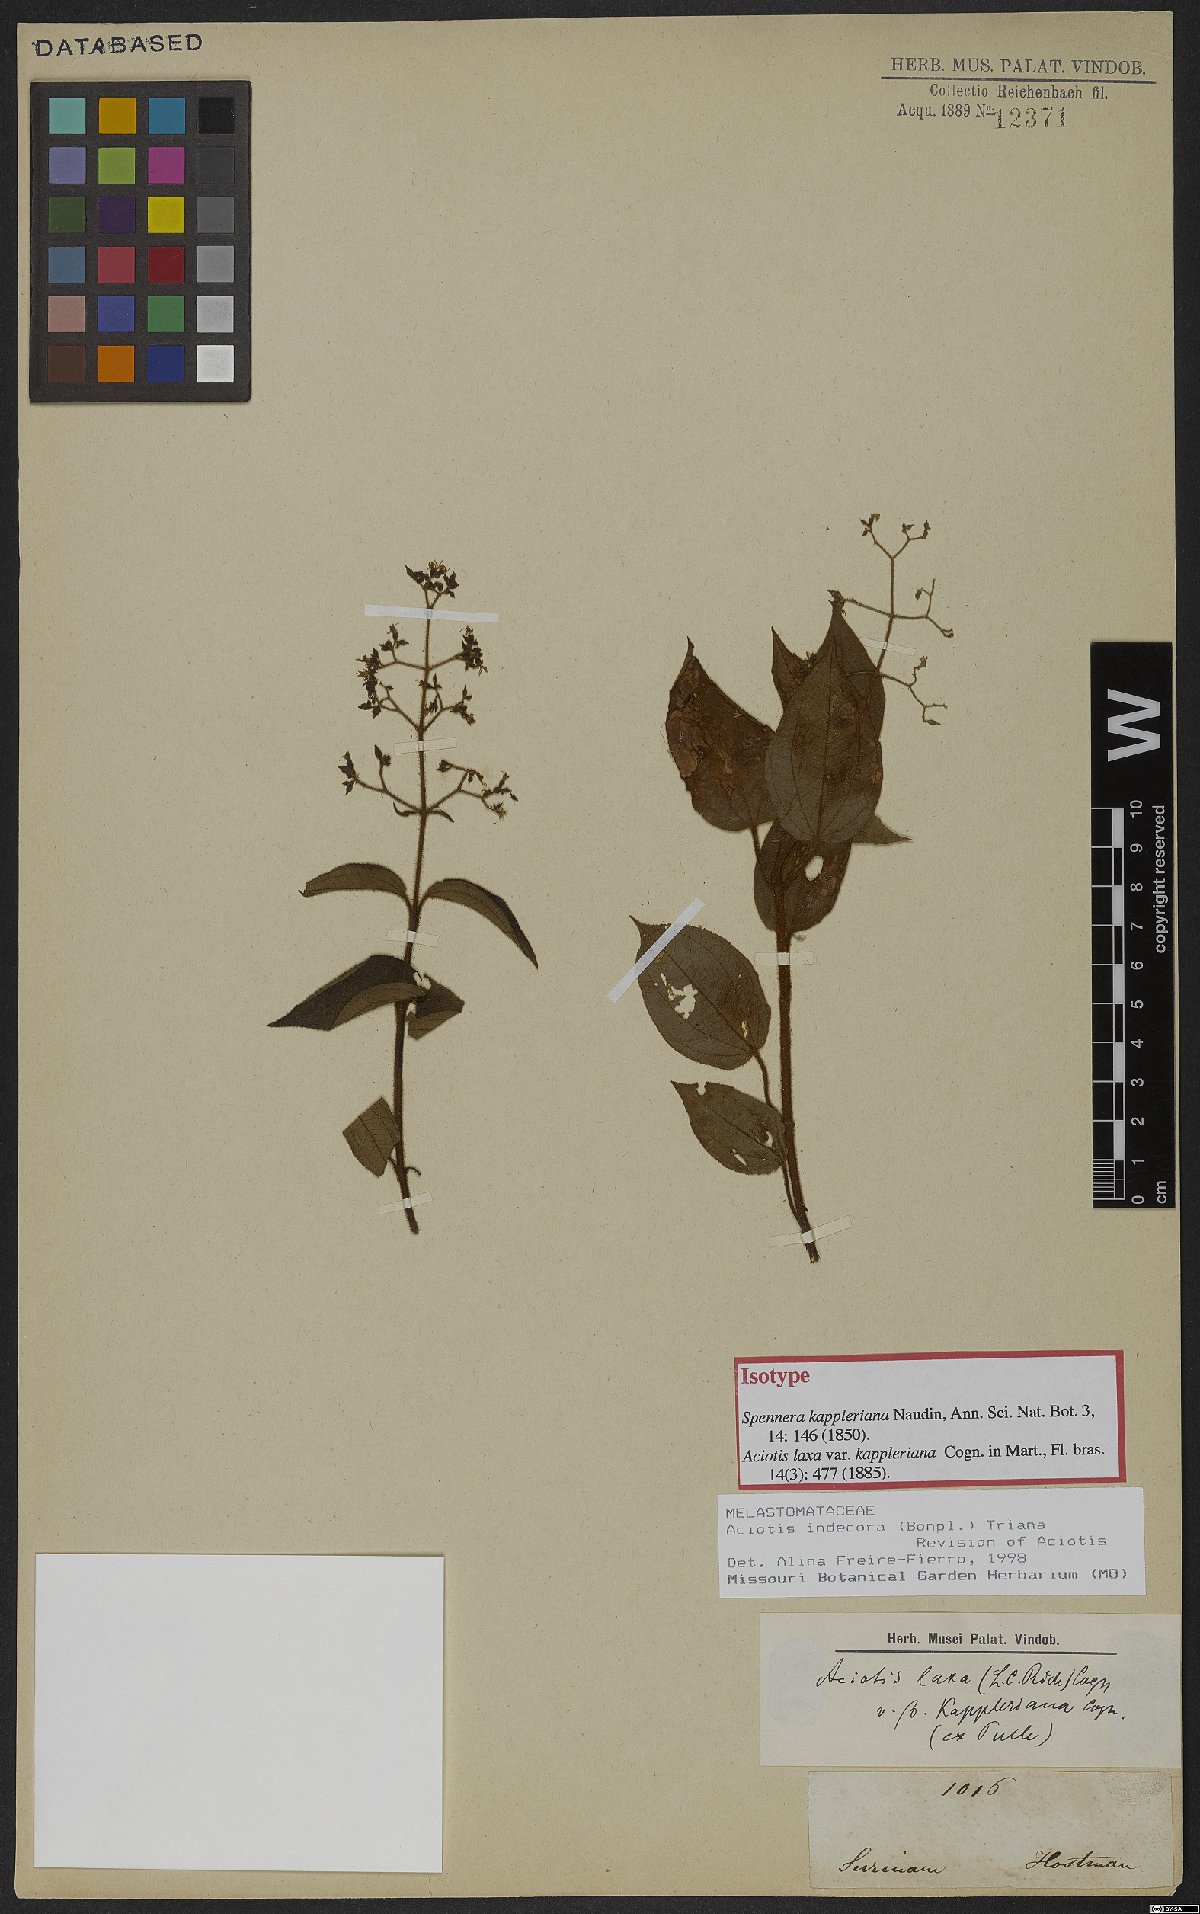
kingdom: Plantae
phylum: Tracheophyta
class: Magnoliopsida
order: Myrtales
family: Melastomataceae
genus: Aciotis
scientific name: Aciotis indecora
